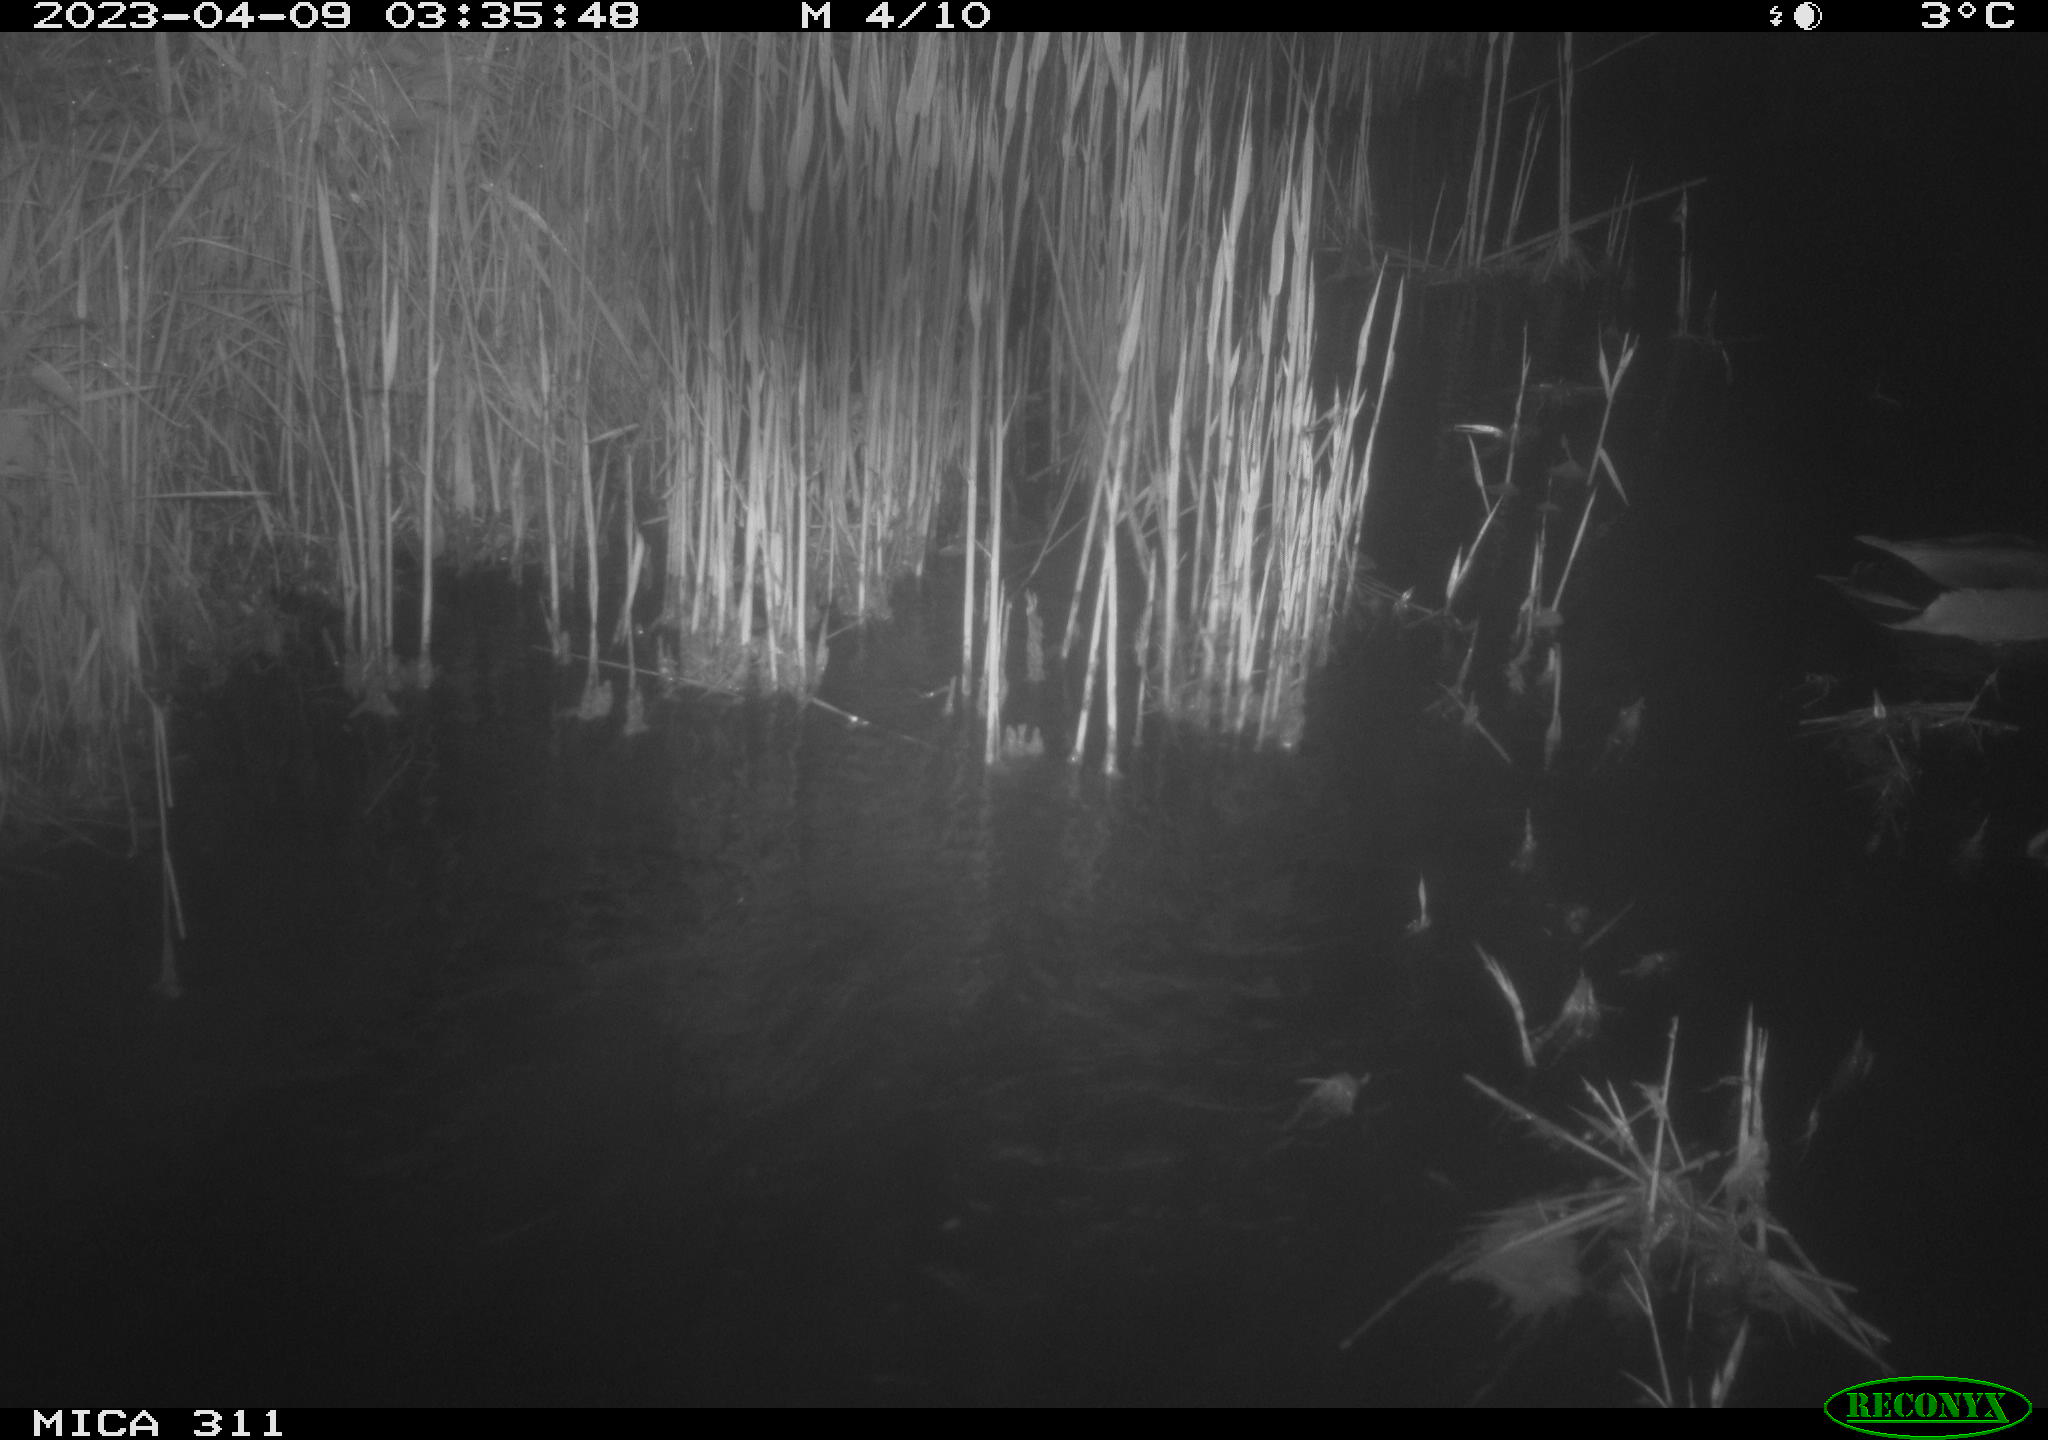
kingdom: Animalia
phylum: Chordata
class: Aves
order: Anseriformes
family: Anatidae
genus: Anas
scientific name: Anas
